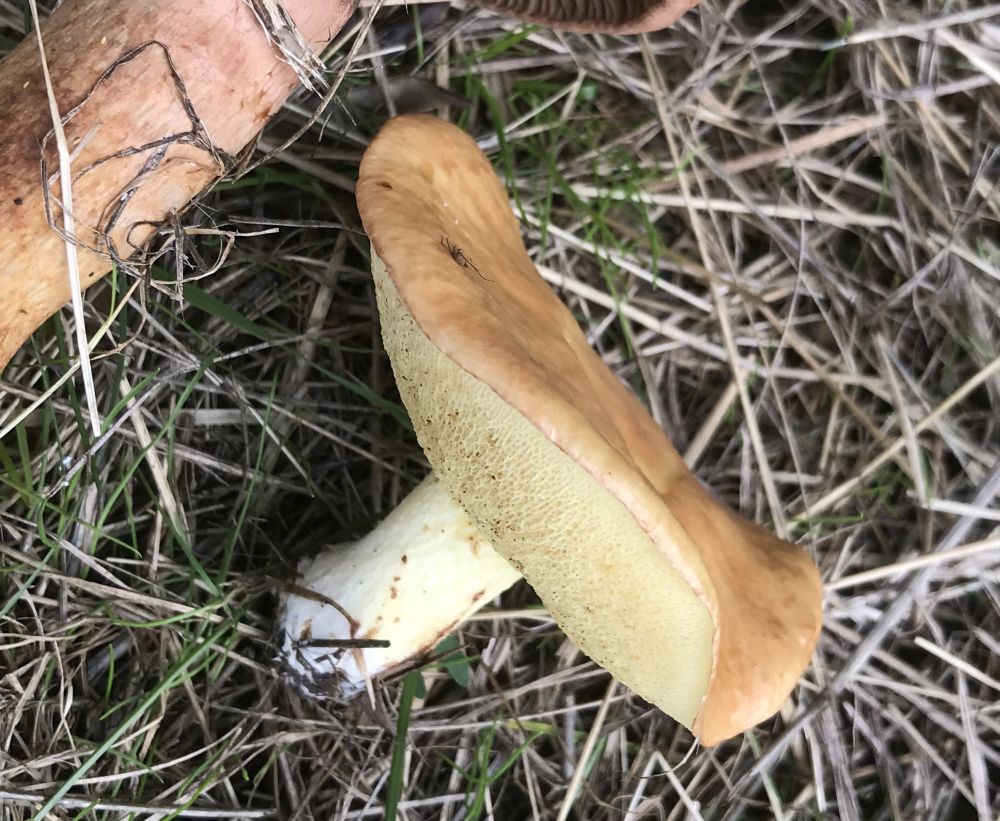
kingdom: Fungi
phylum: Basidiomycota
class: Agaricomycetes
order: Boletales
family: Suillaceae
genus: Suillus
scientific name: Suillus granulatus
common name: kornet slimrørhat
